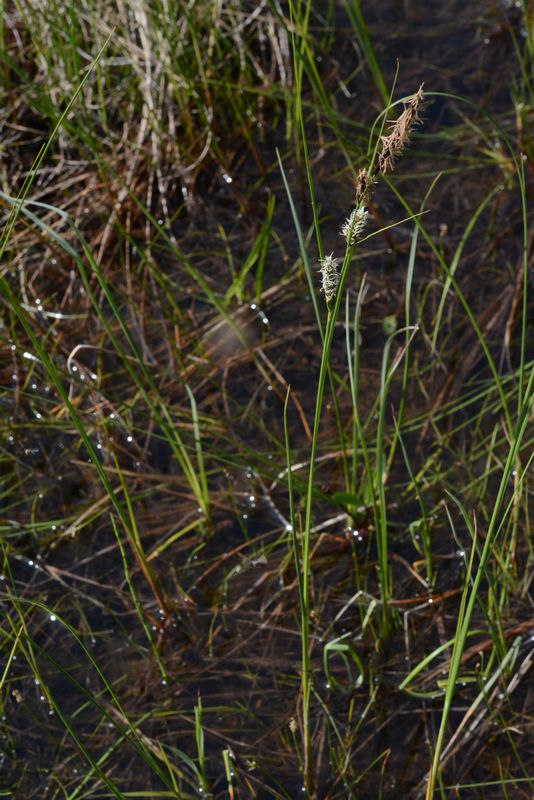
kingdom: Plantae
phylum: Tracheophyta
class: Liliopsida
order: Poales
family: Cyperaceae
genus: Carex
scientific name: Carex lasiocarpa
